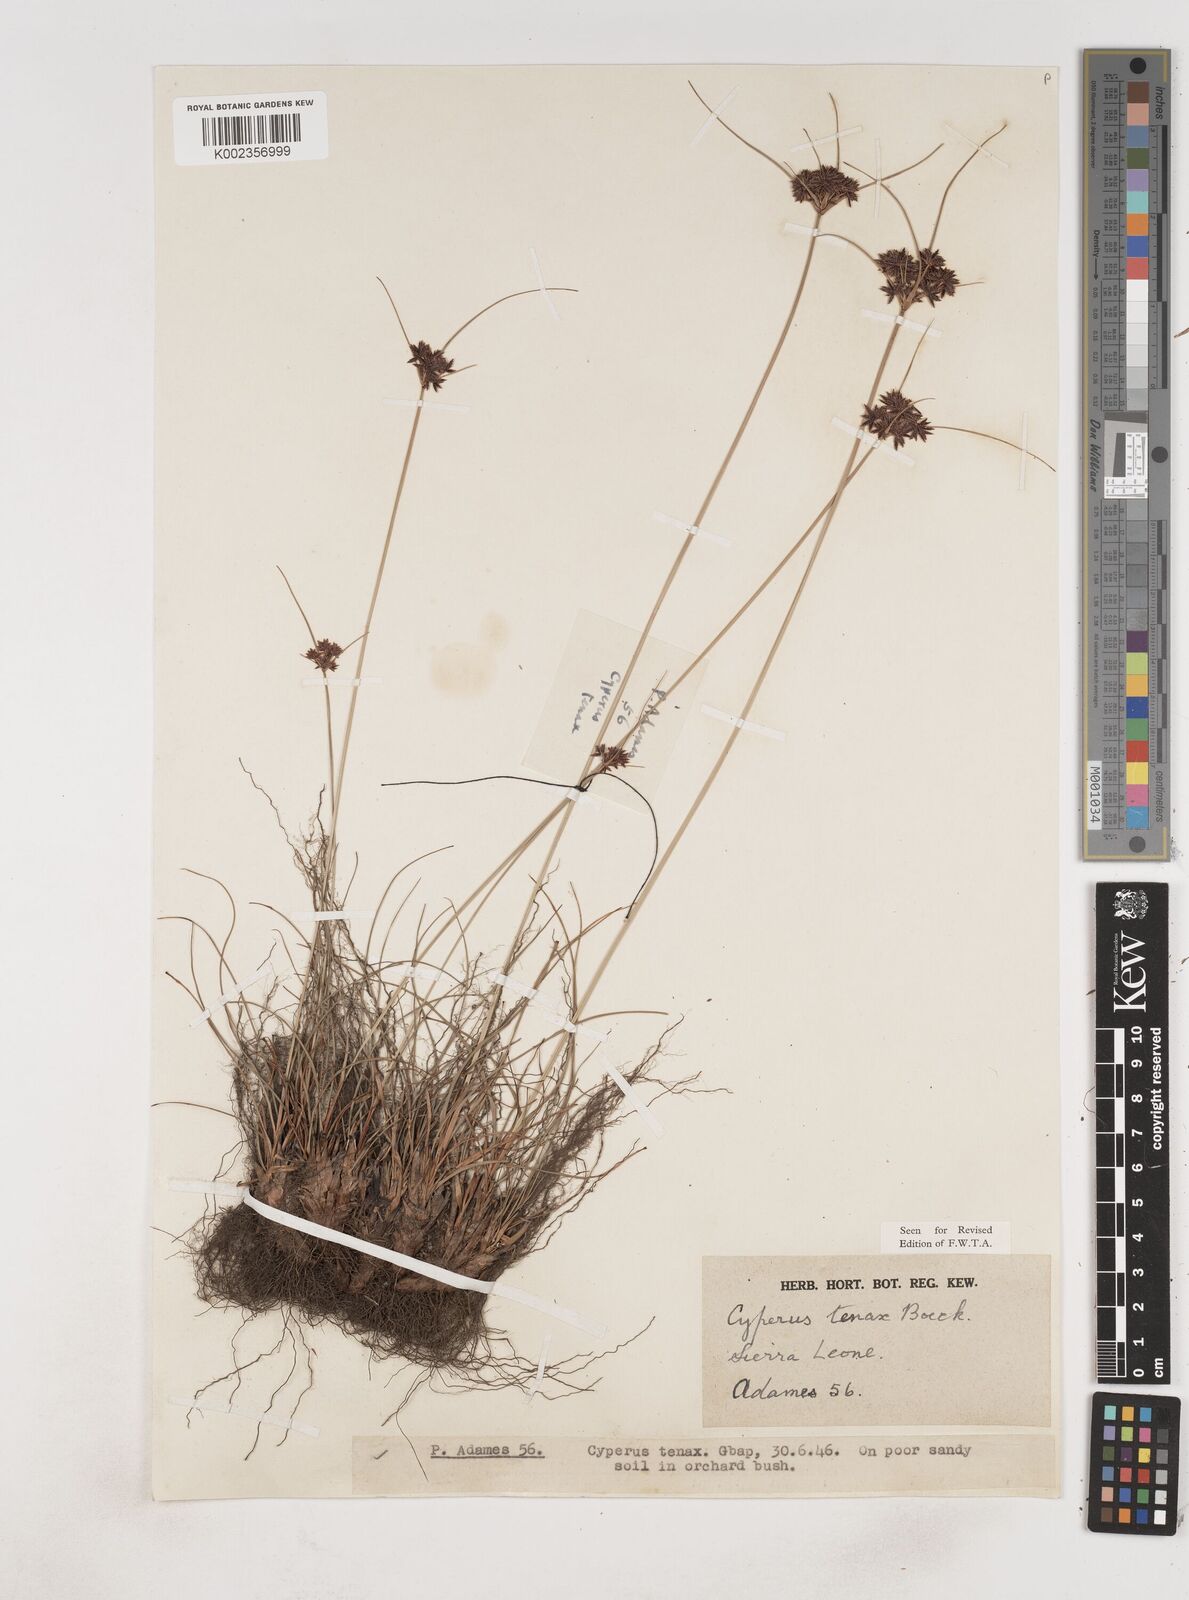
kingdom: Plantae
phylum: Tracheophyta
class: Liliopsida
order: Poales
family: Cyperaceae
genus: Cyperus
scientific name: Cyperus tenax
